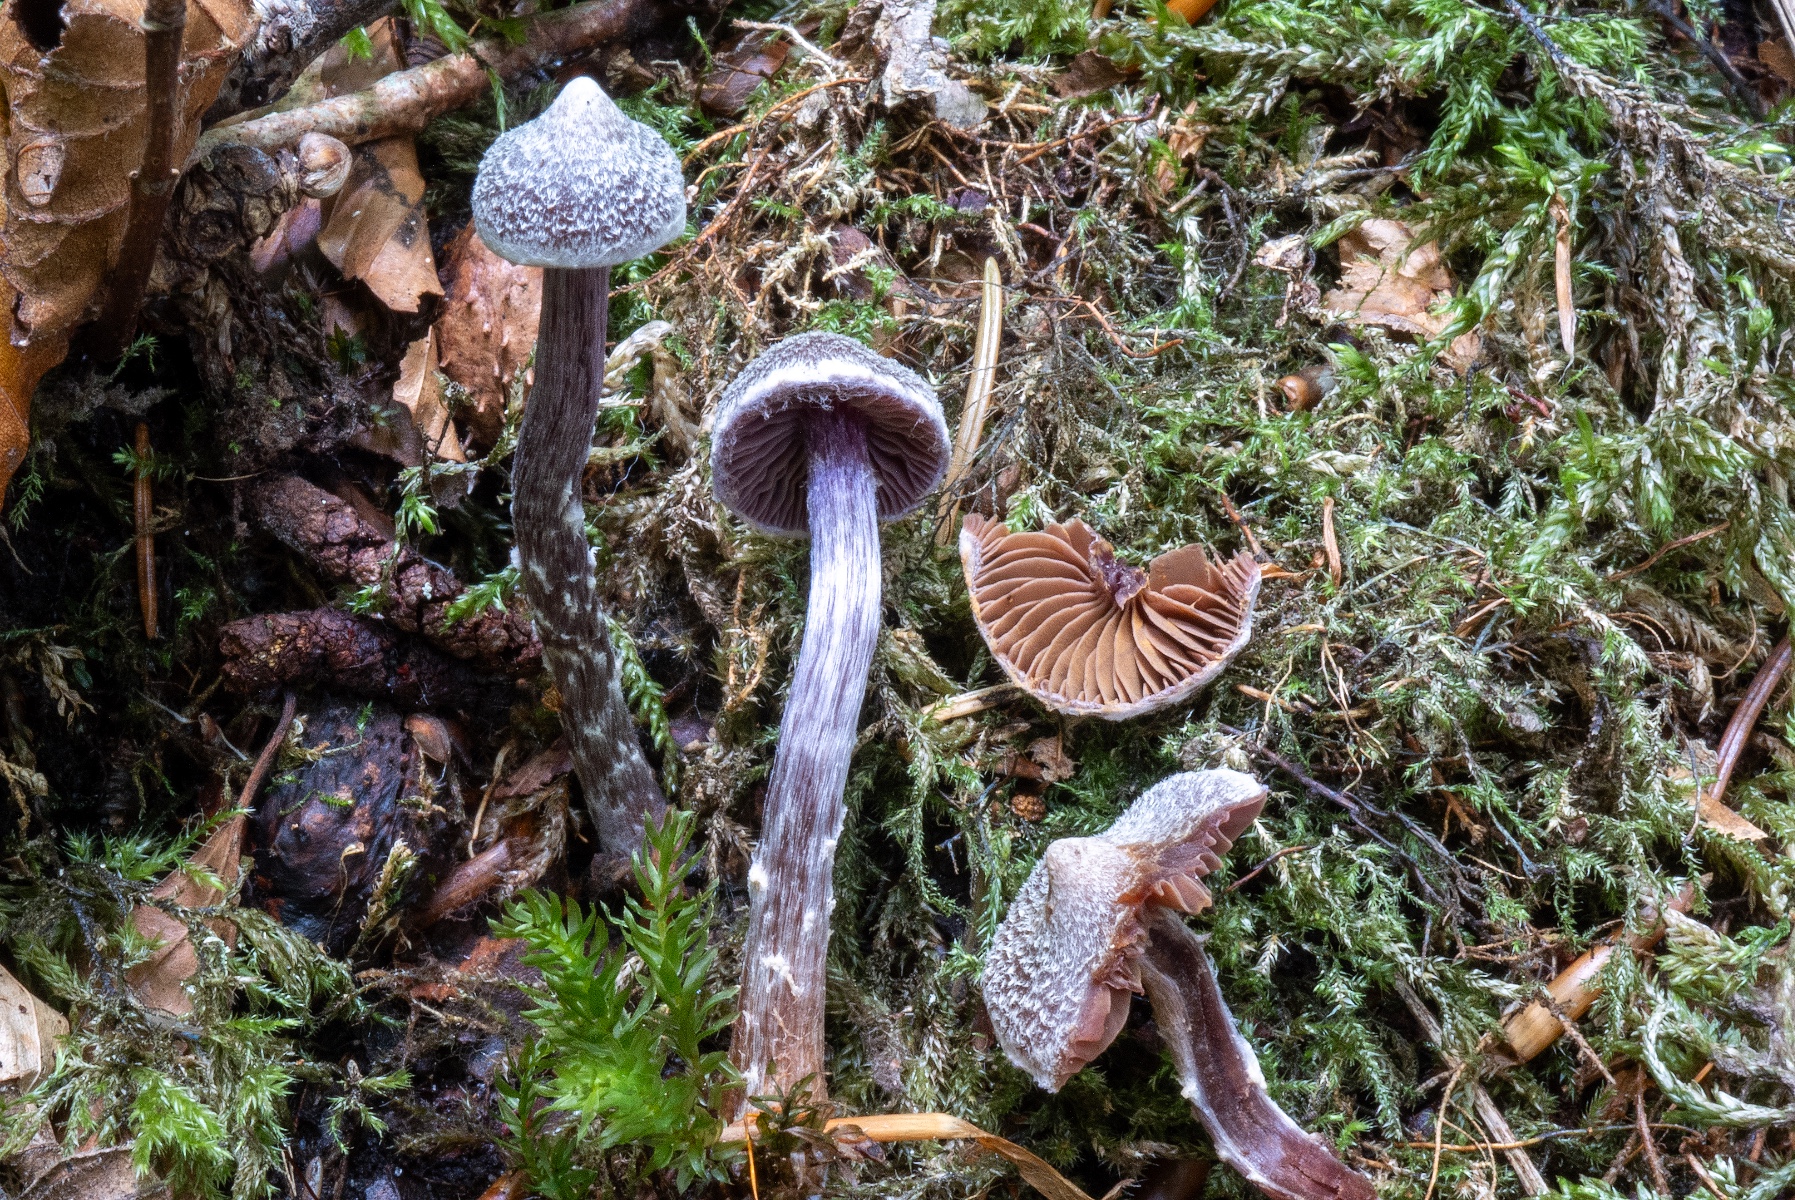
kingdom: Fungi
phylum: Basidiomycota
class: Agaricomycetes
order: Agaricales
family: Cortinariaceae
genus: Cortinarius
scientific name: Cortinarius flexipes
